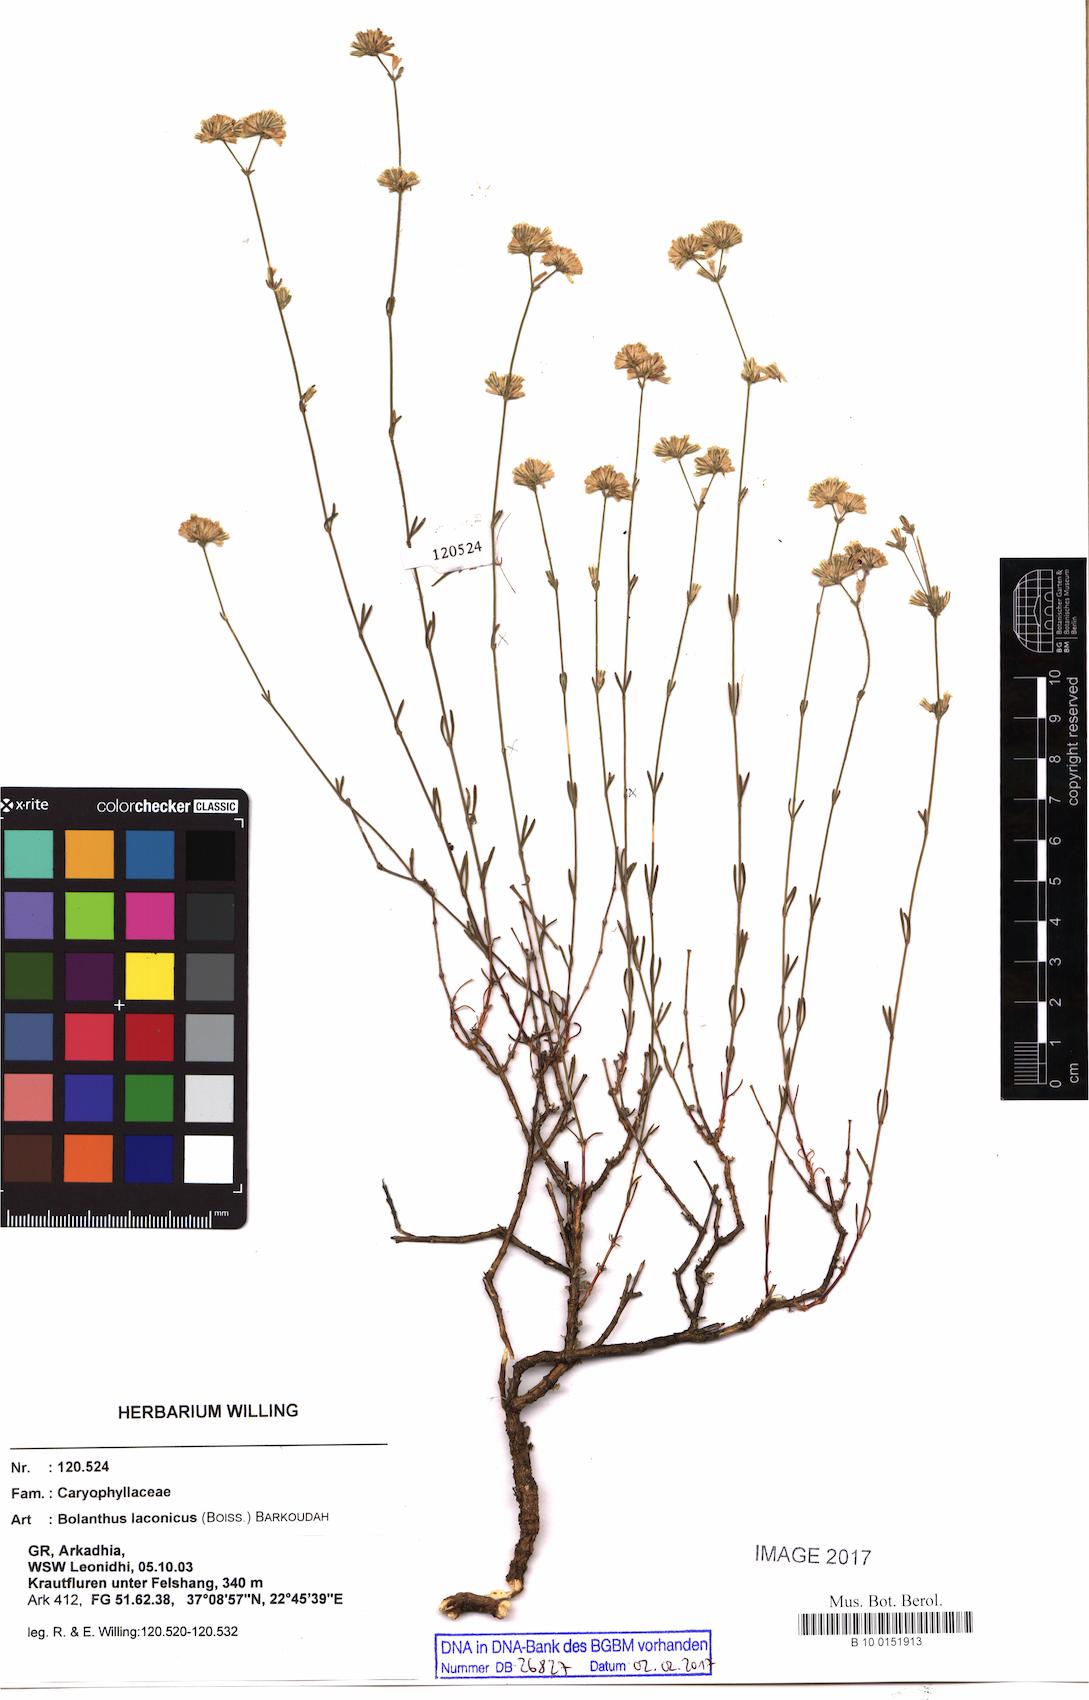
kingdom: Plantae
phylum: Tracheophyta
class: Magnoliopsida
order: Caryophyllales
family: Caryophyllaceae
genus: Graecobolanthus
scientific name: Graecobolanthus laconicus
